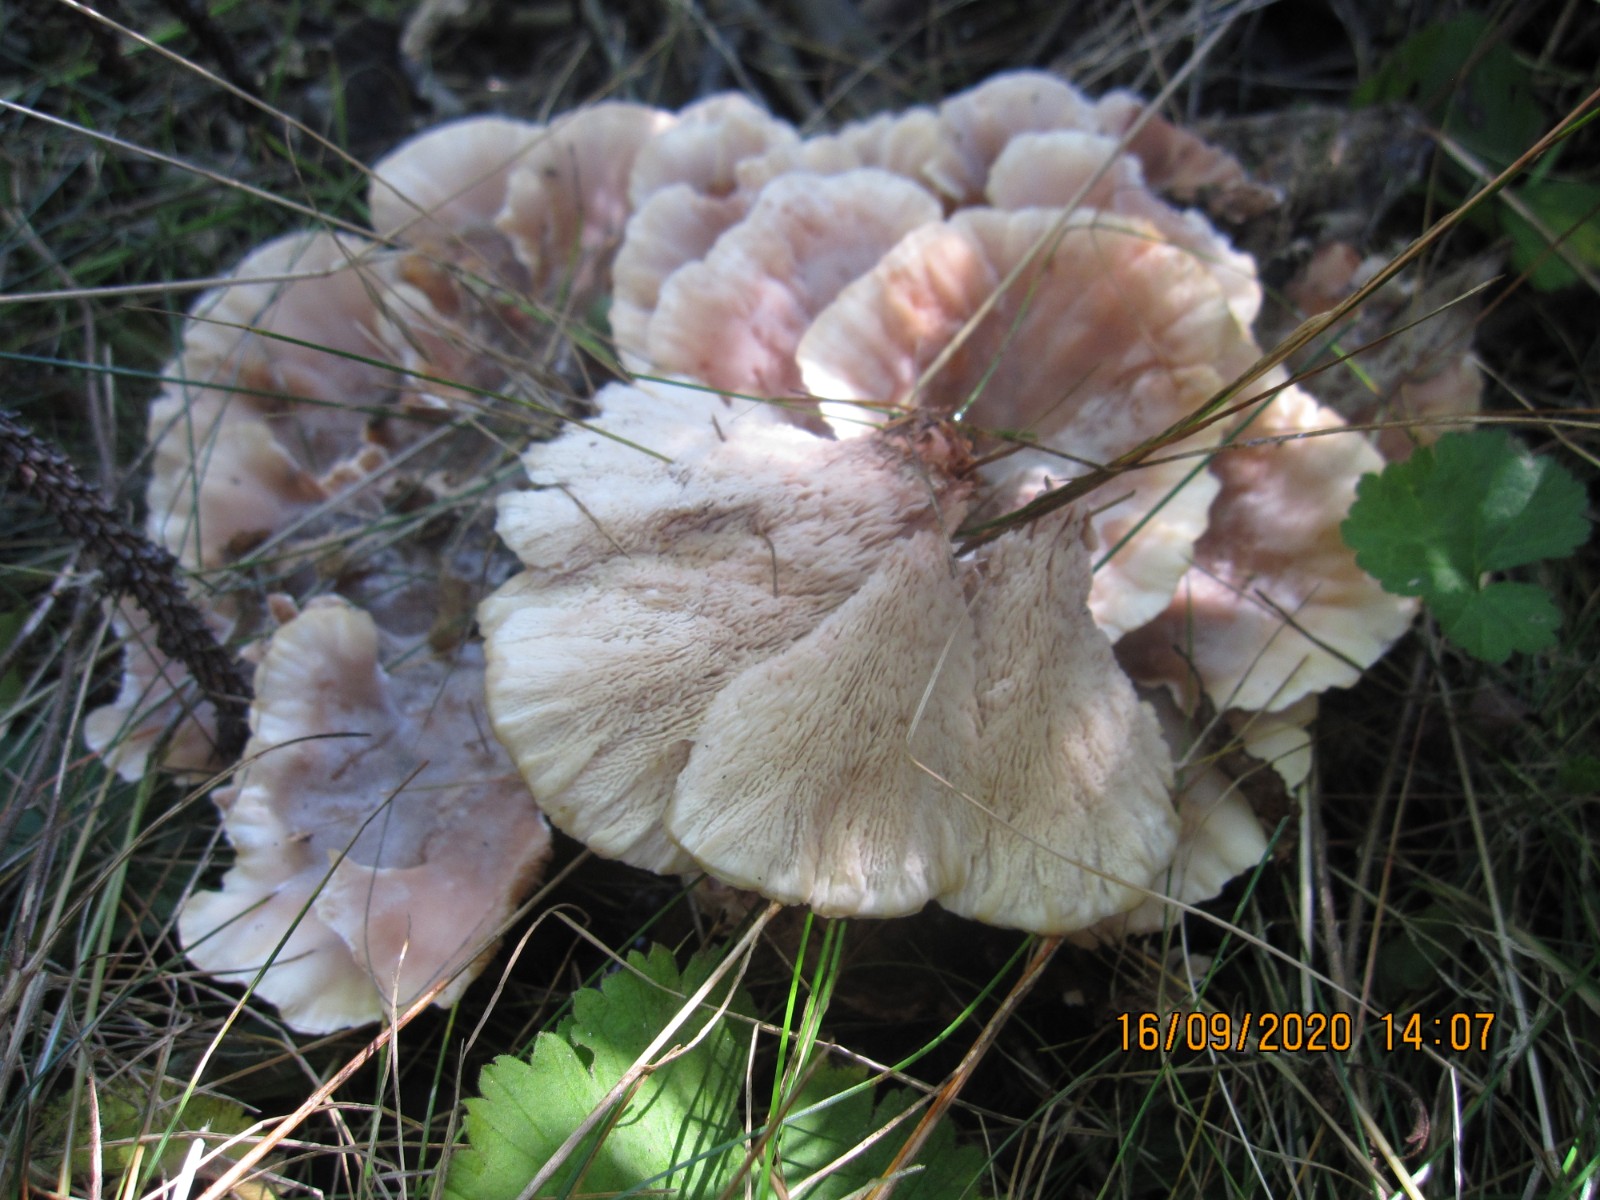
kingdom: Fungi
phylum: Basidiomycota
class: Agaricomycetes
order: Polyporales
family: Podoscyphaceae
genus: Abortiporus
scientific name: Abortiporus biennis
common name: rødmende pjalteporesvamp
